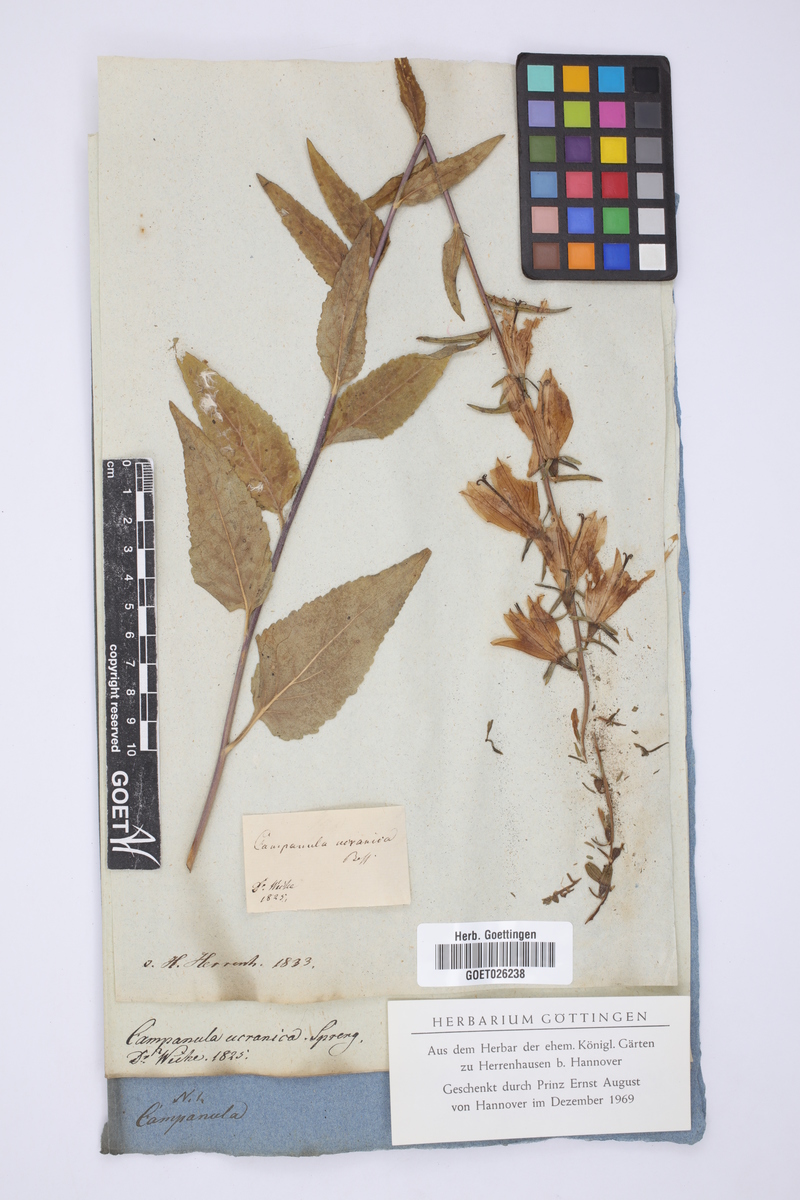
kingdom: Plantae
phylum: Tracheophyta
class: Magnoliopsida
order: Asterales
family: Campanulaceae
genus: Campanula
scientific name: Campanula rapunculoides
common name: Creeping bellflower
